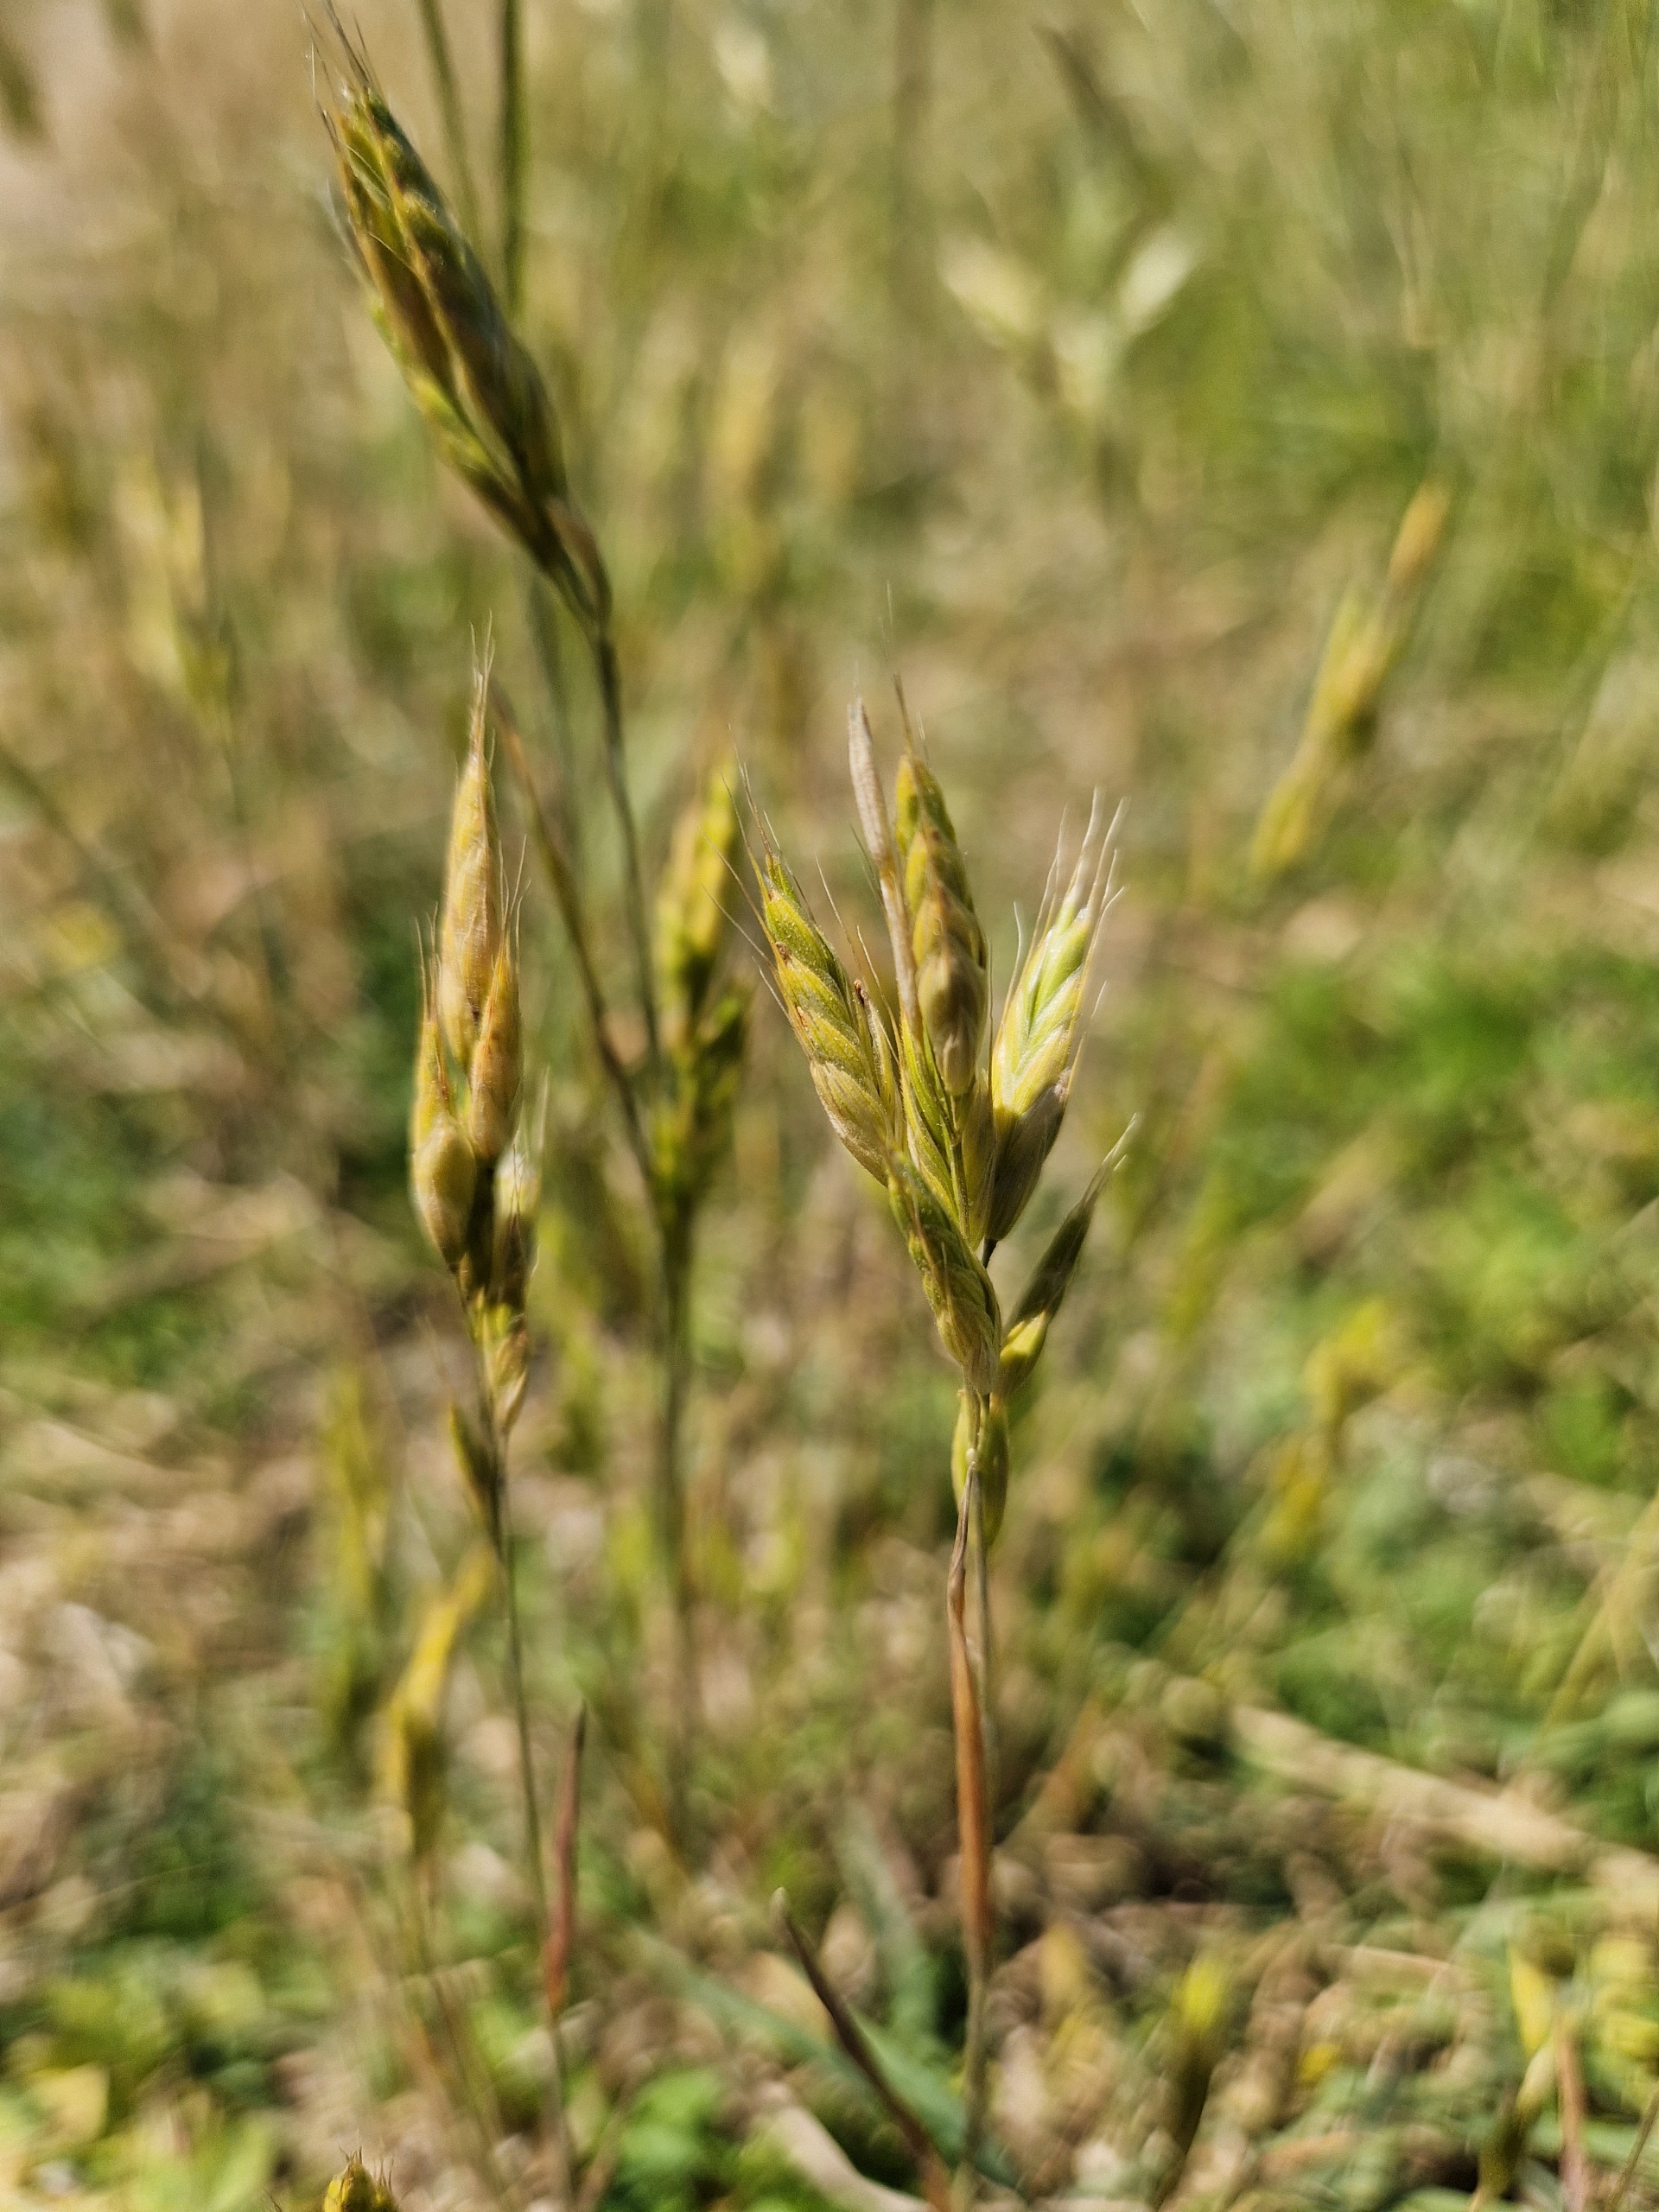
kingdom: Plantae
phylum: Tracheophyta
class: Liliopsida
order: Poales
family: Poaceae
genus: Bromus
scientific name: Bromus hordeaceus
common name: Blød hejre
